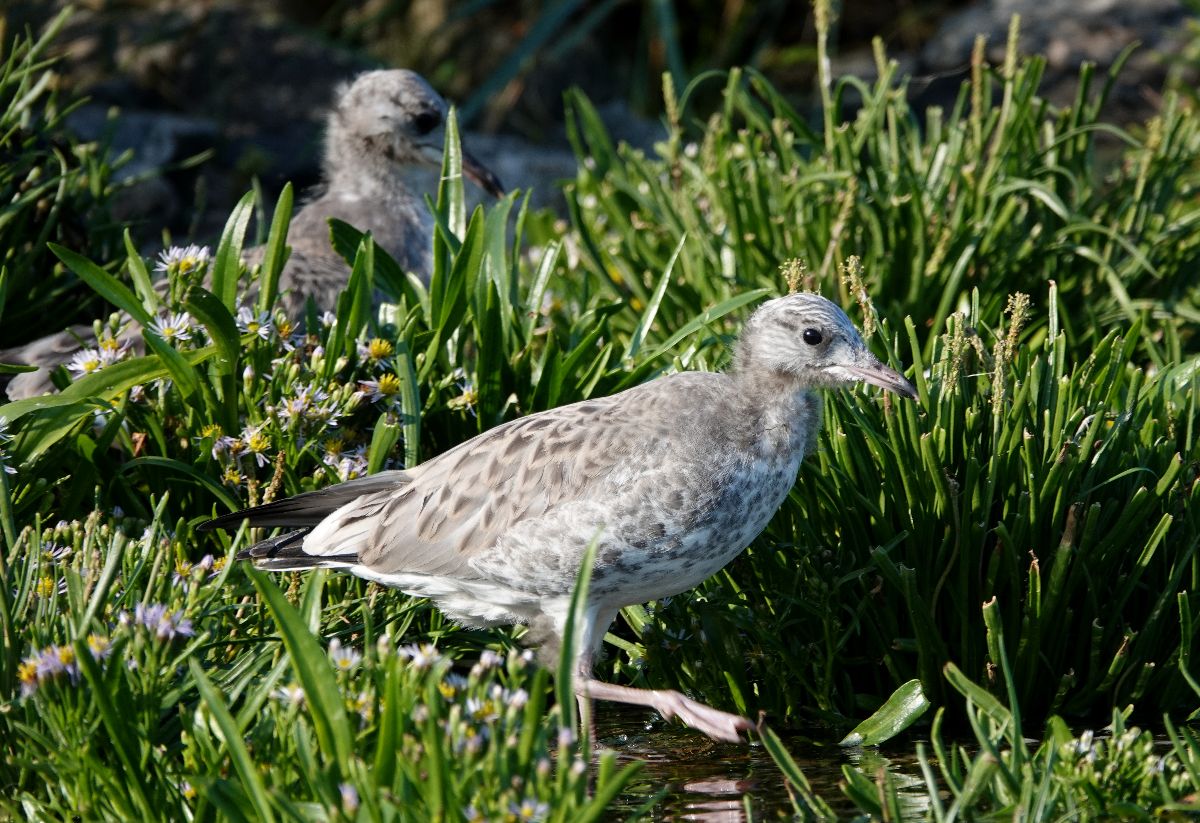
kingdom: Animalia
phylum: Chordata
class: Aves
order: Charadriiformes
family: Laridae
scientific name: Laridae
